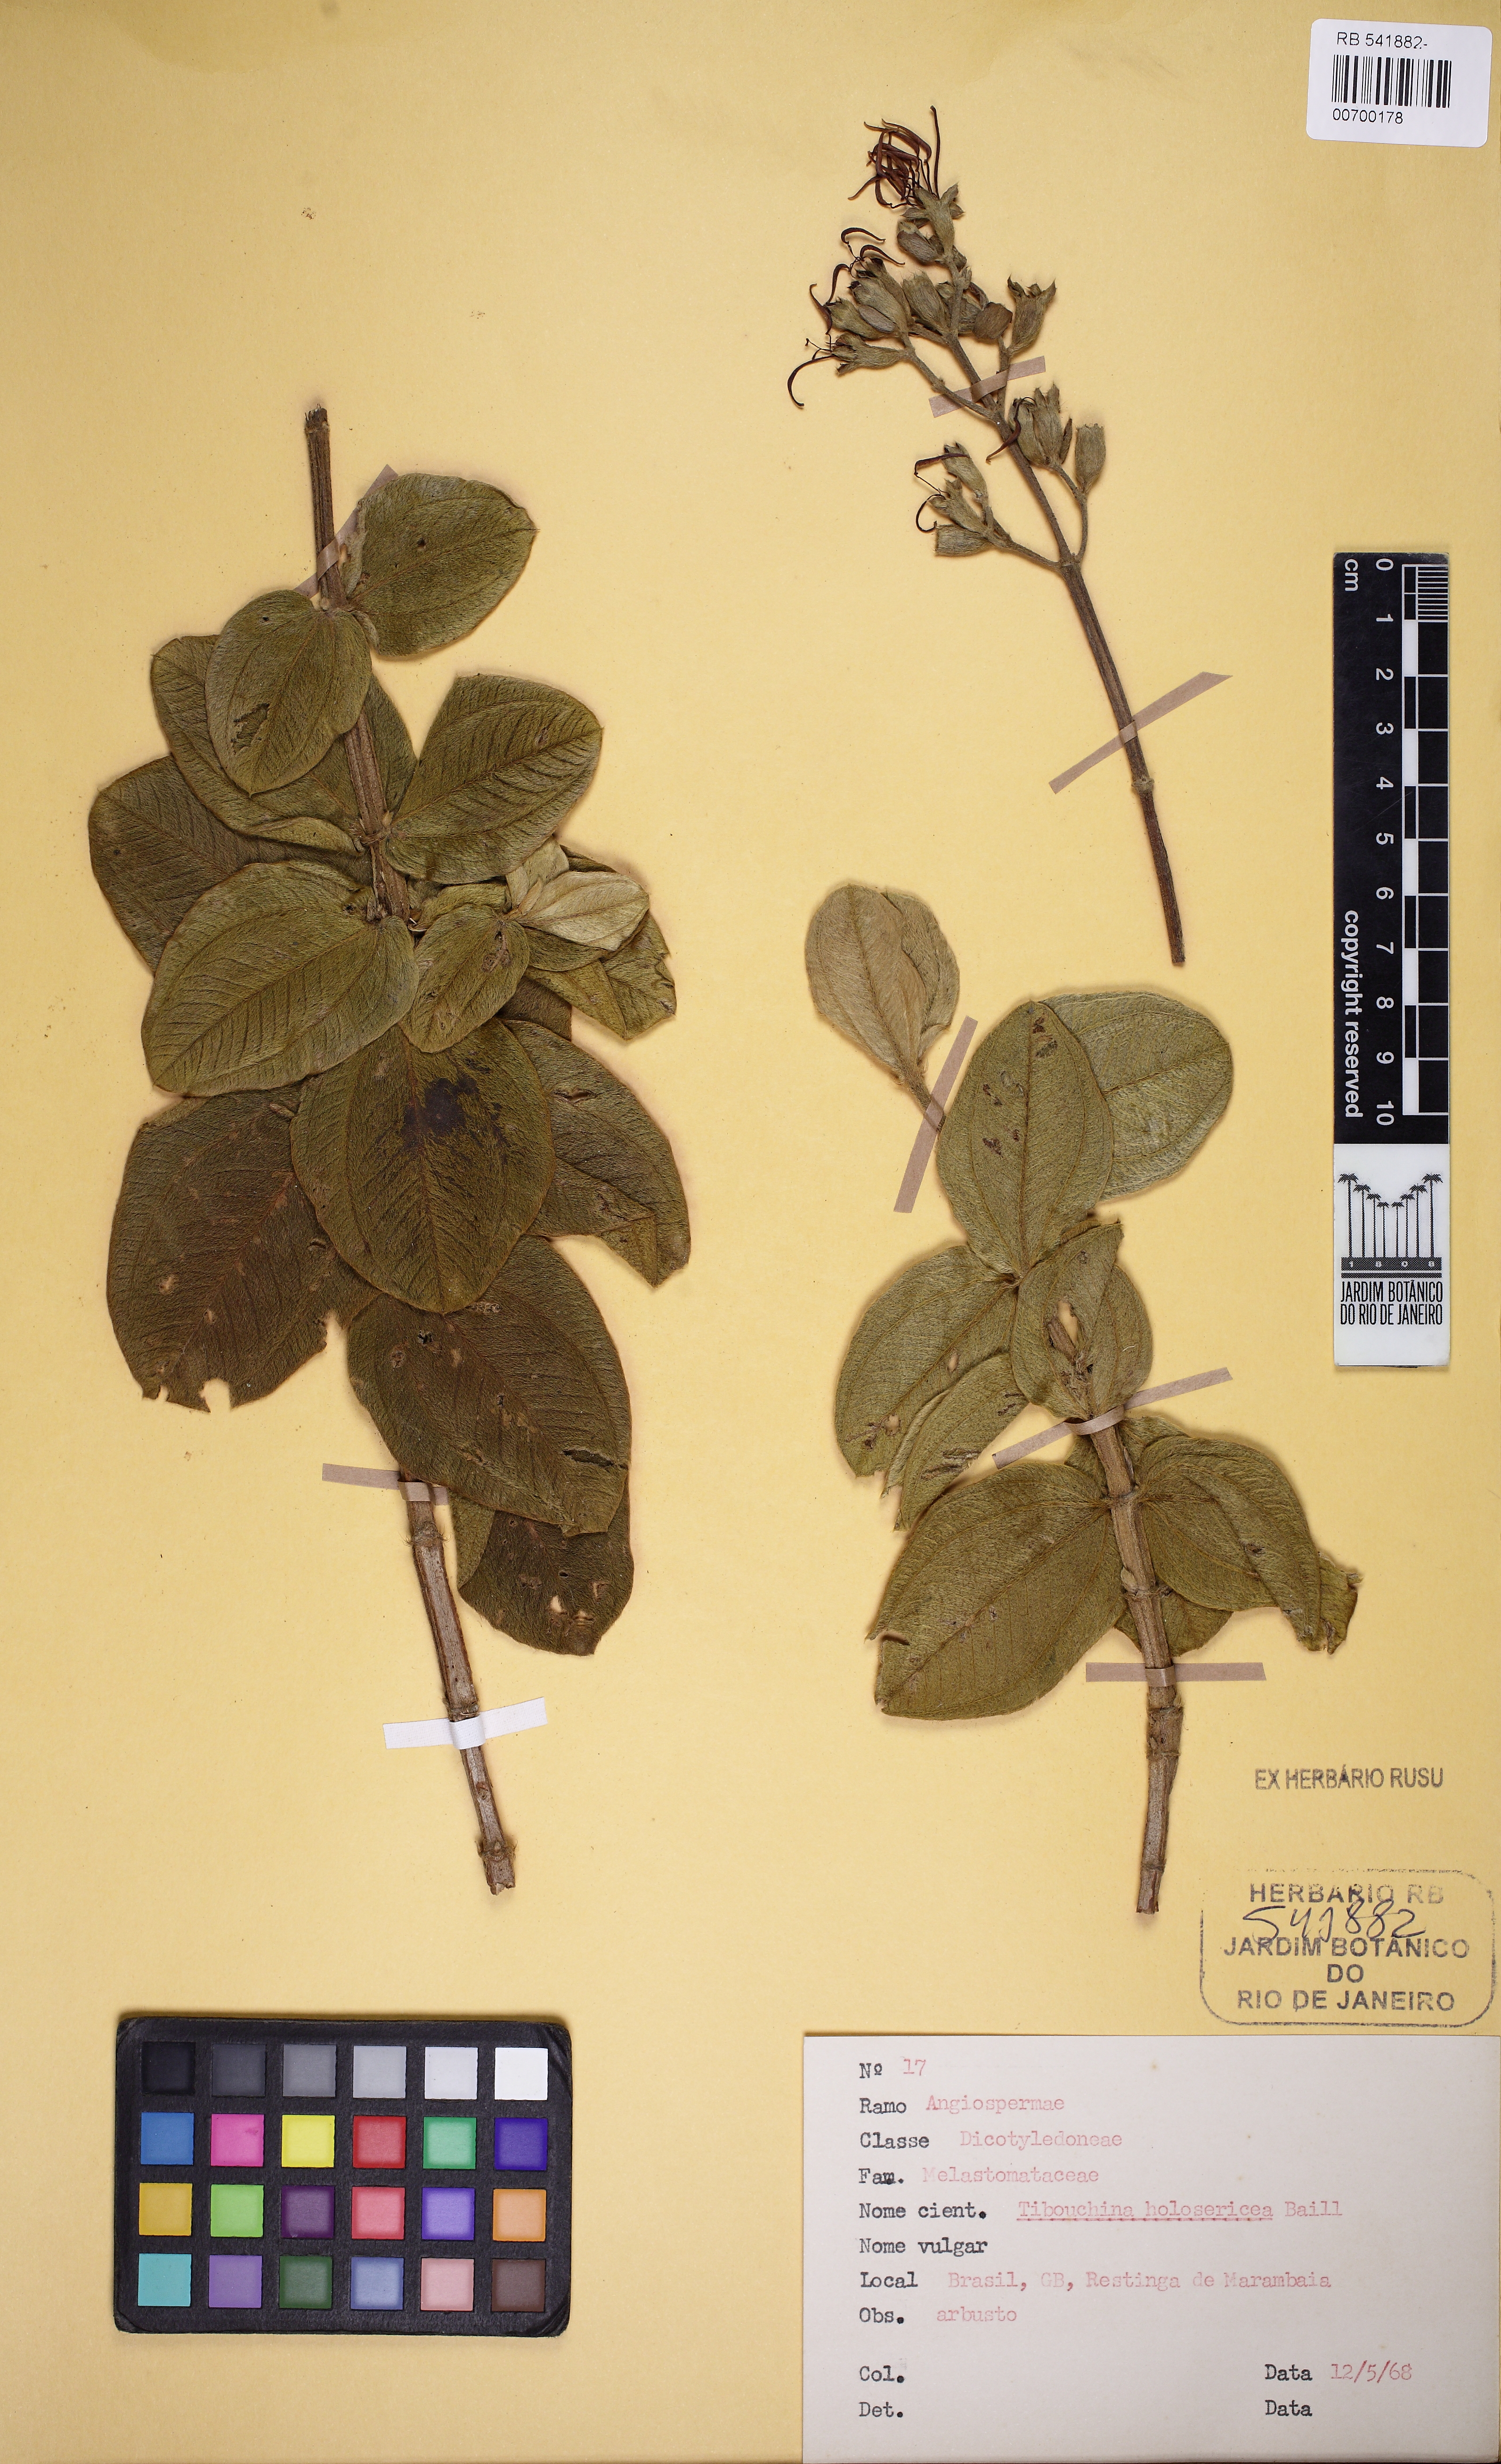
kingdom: Plantae
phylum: Tracheophyta
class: Magnoliopsida
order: Myrtales
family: Melastomataceae
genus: Pleroma
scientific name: Pleroma clavatum
